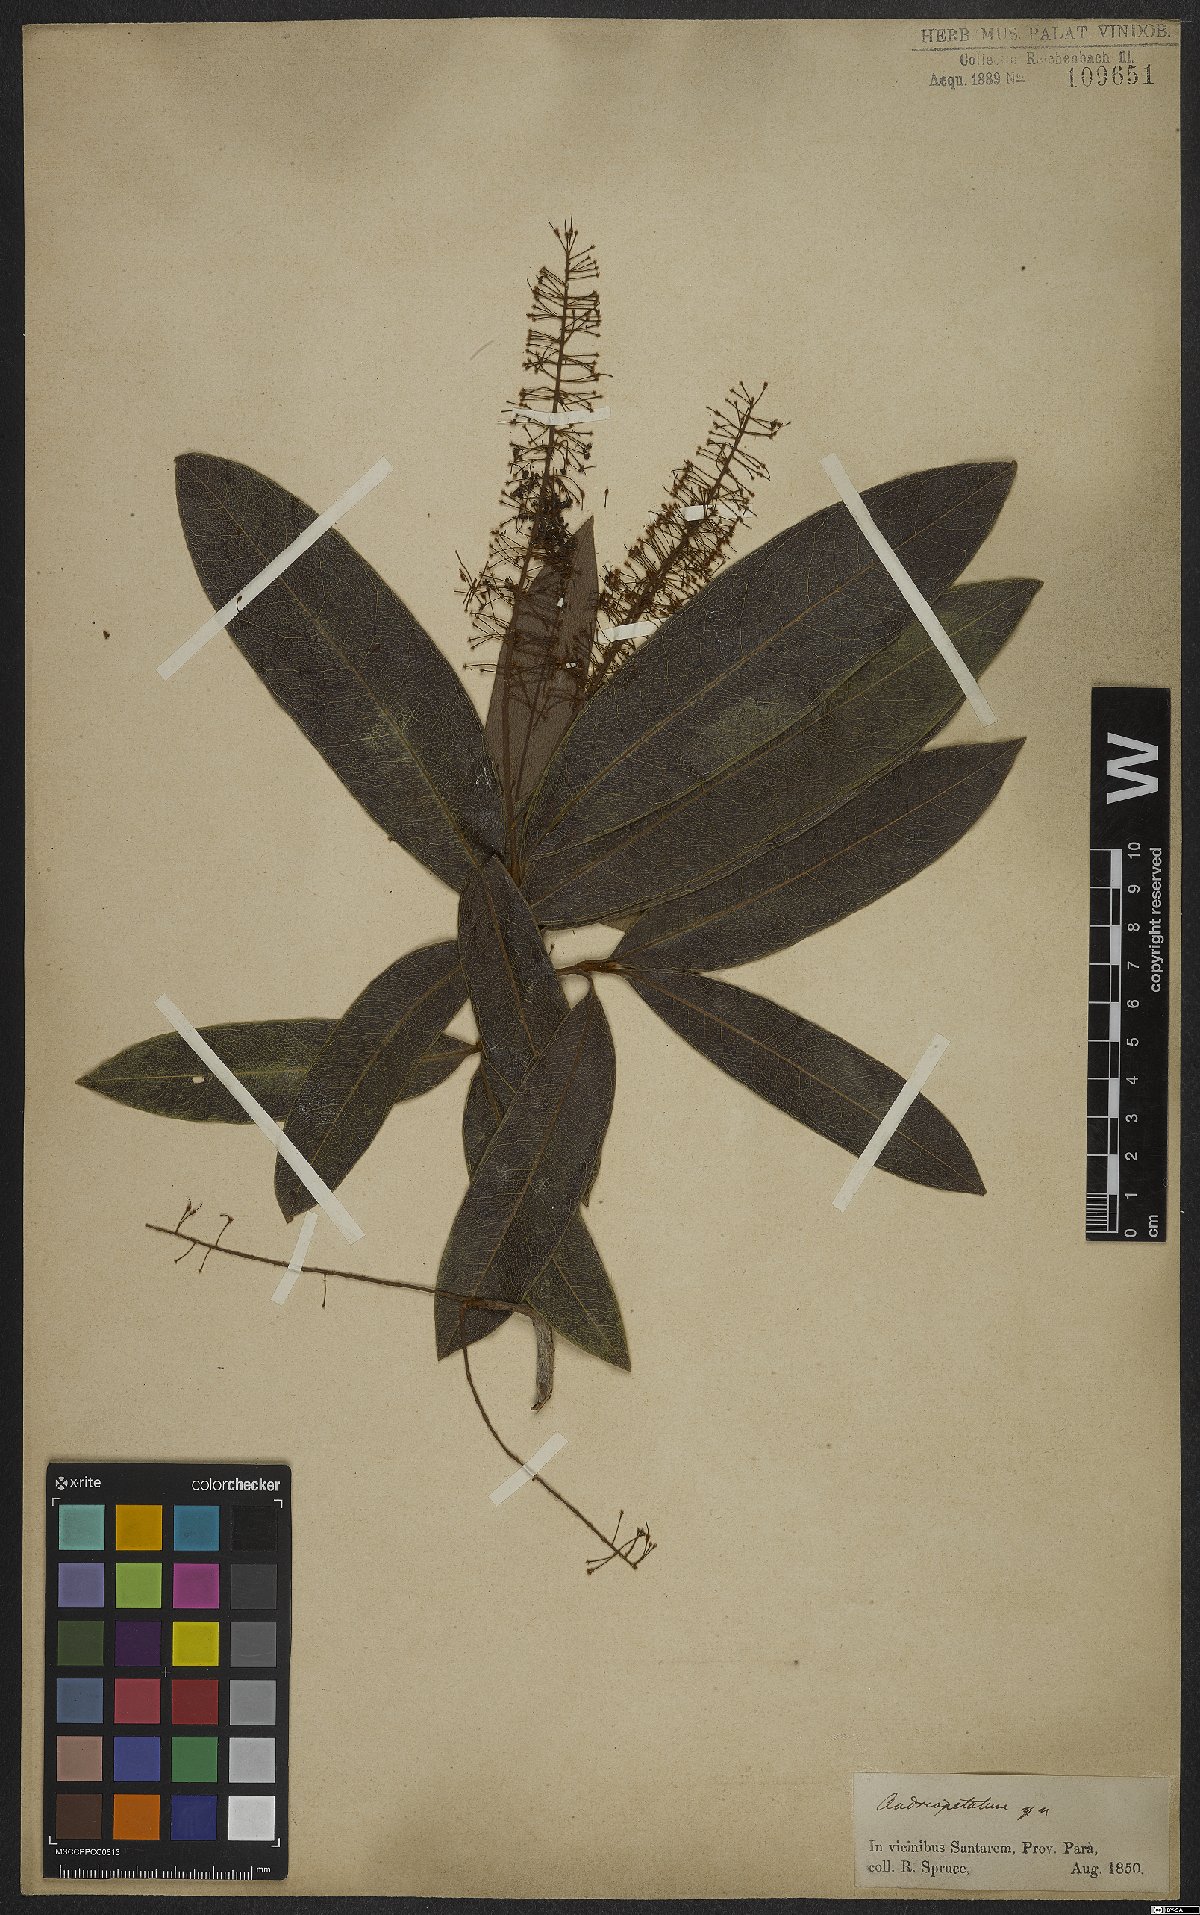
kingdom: Plantae
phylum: Tracheophyta
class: Magnoliopsida
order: Proteales
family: Proteaceae
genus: Panopsis
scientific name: Panopsis
